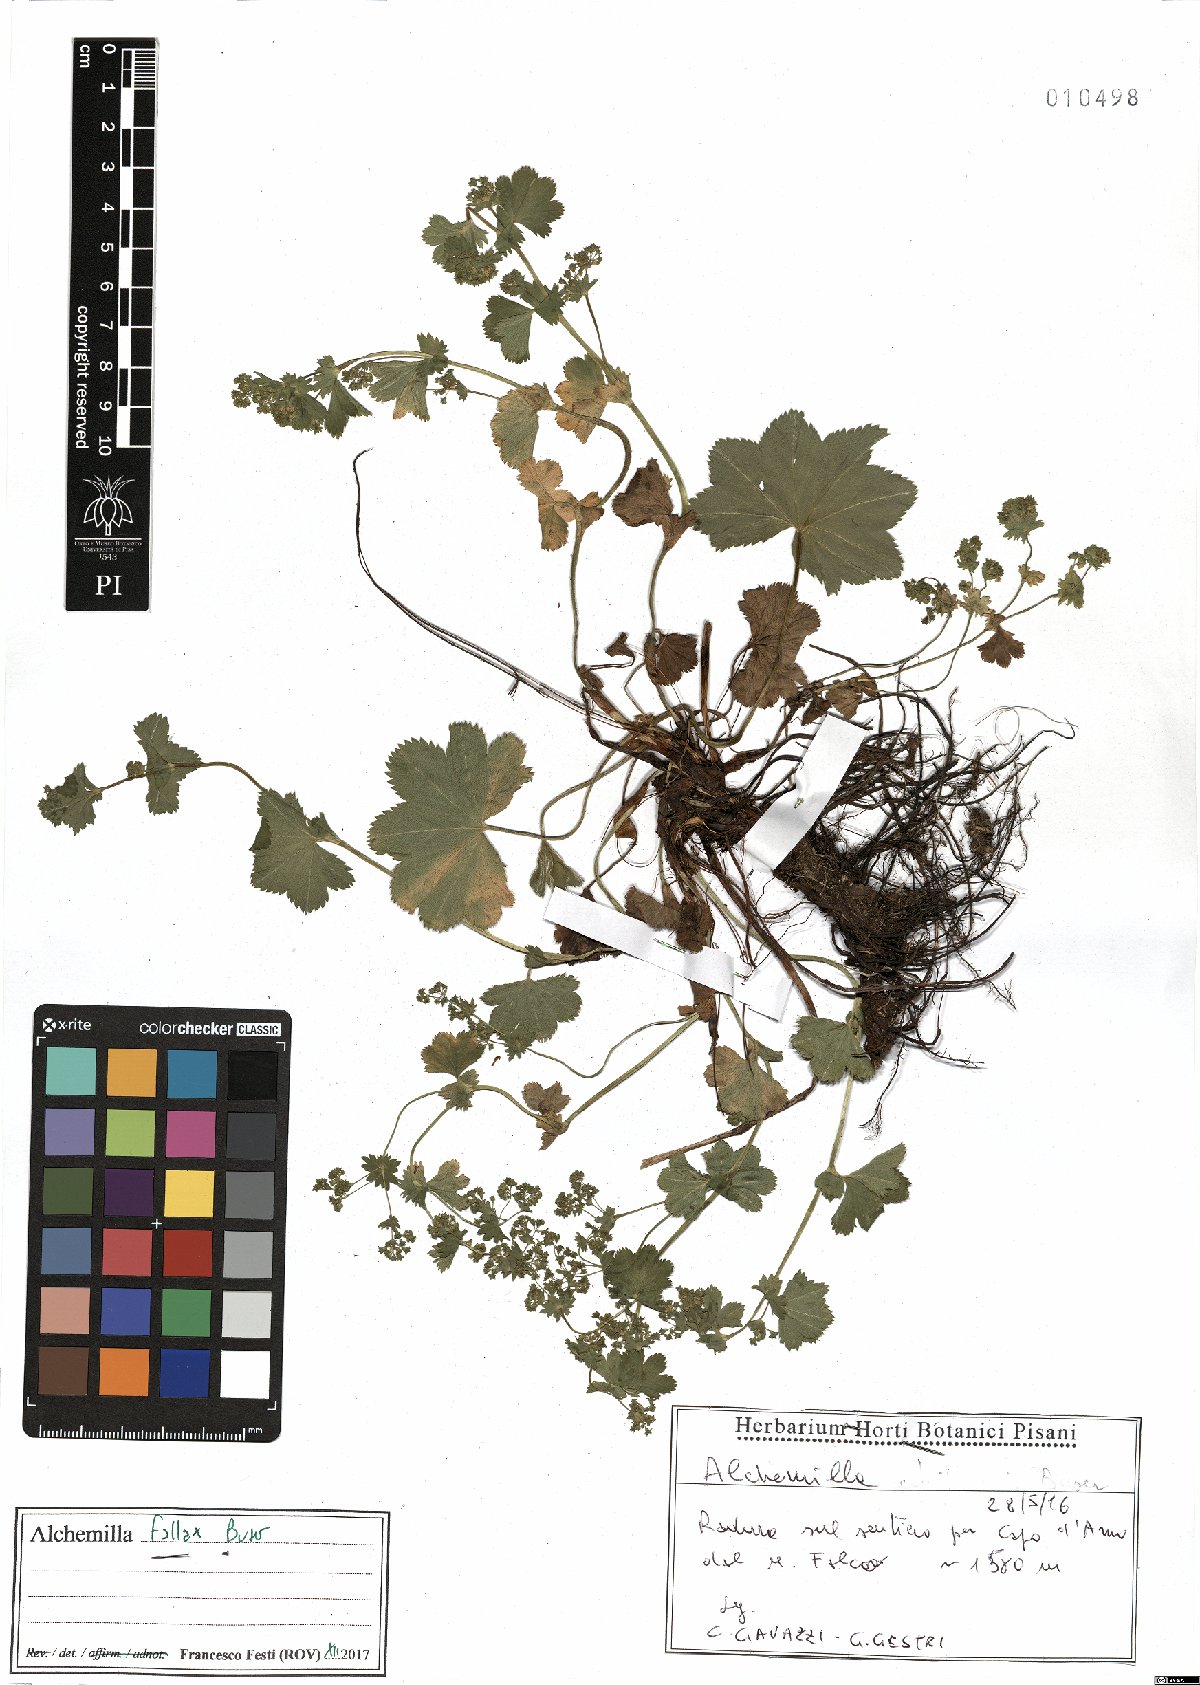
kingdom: Plantae
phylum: Tracheophyta
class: Magnoliopsida
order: Rosales
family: Rosaceae
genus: Alchemilla
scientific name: Alchemilla fallax
